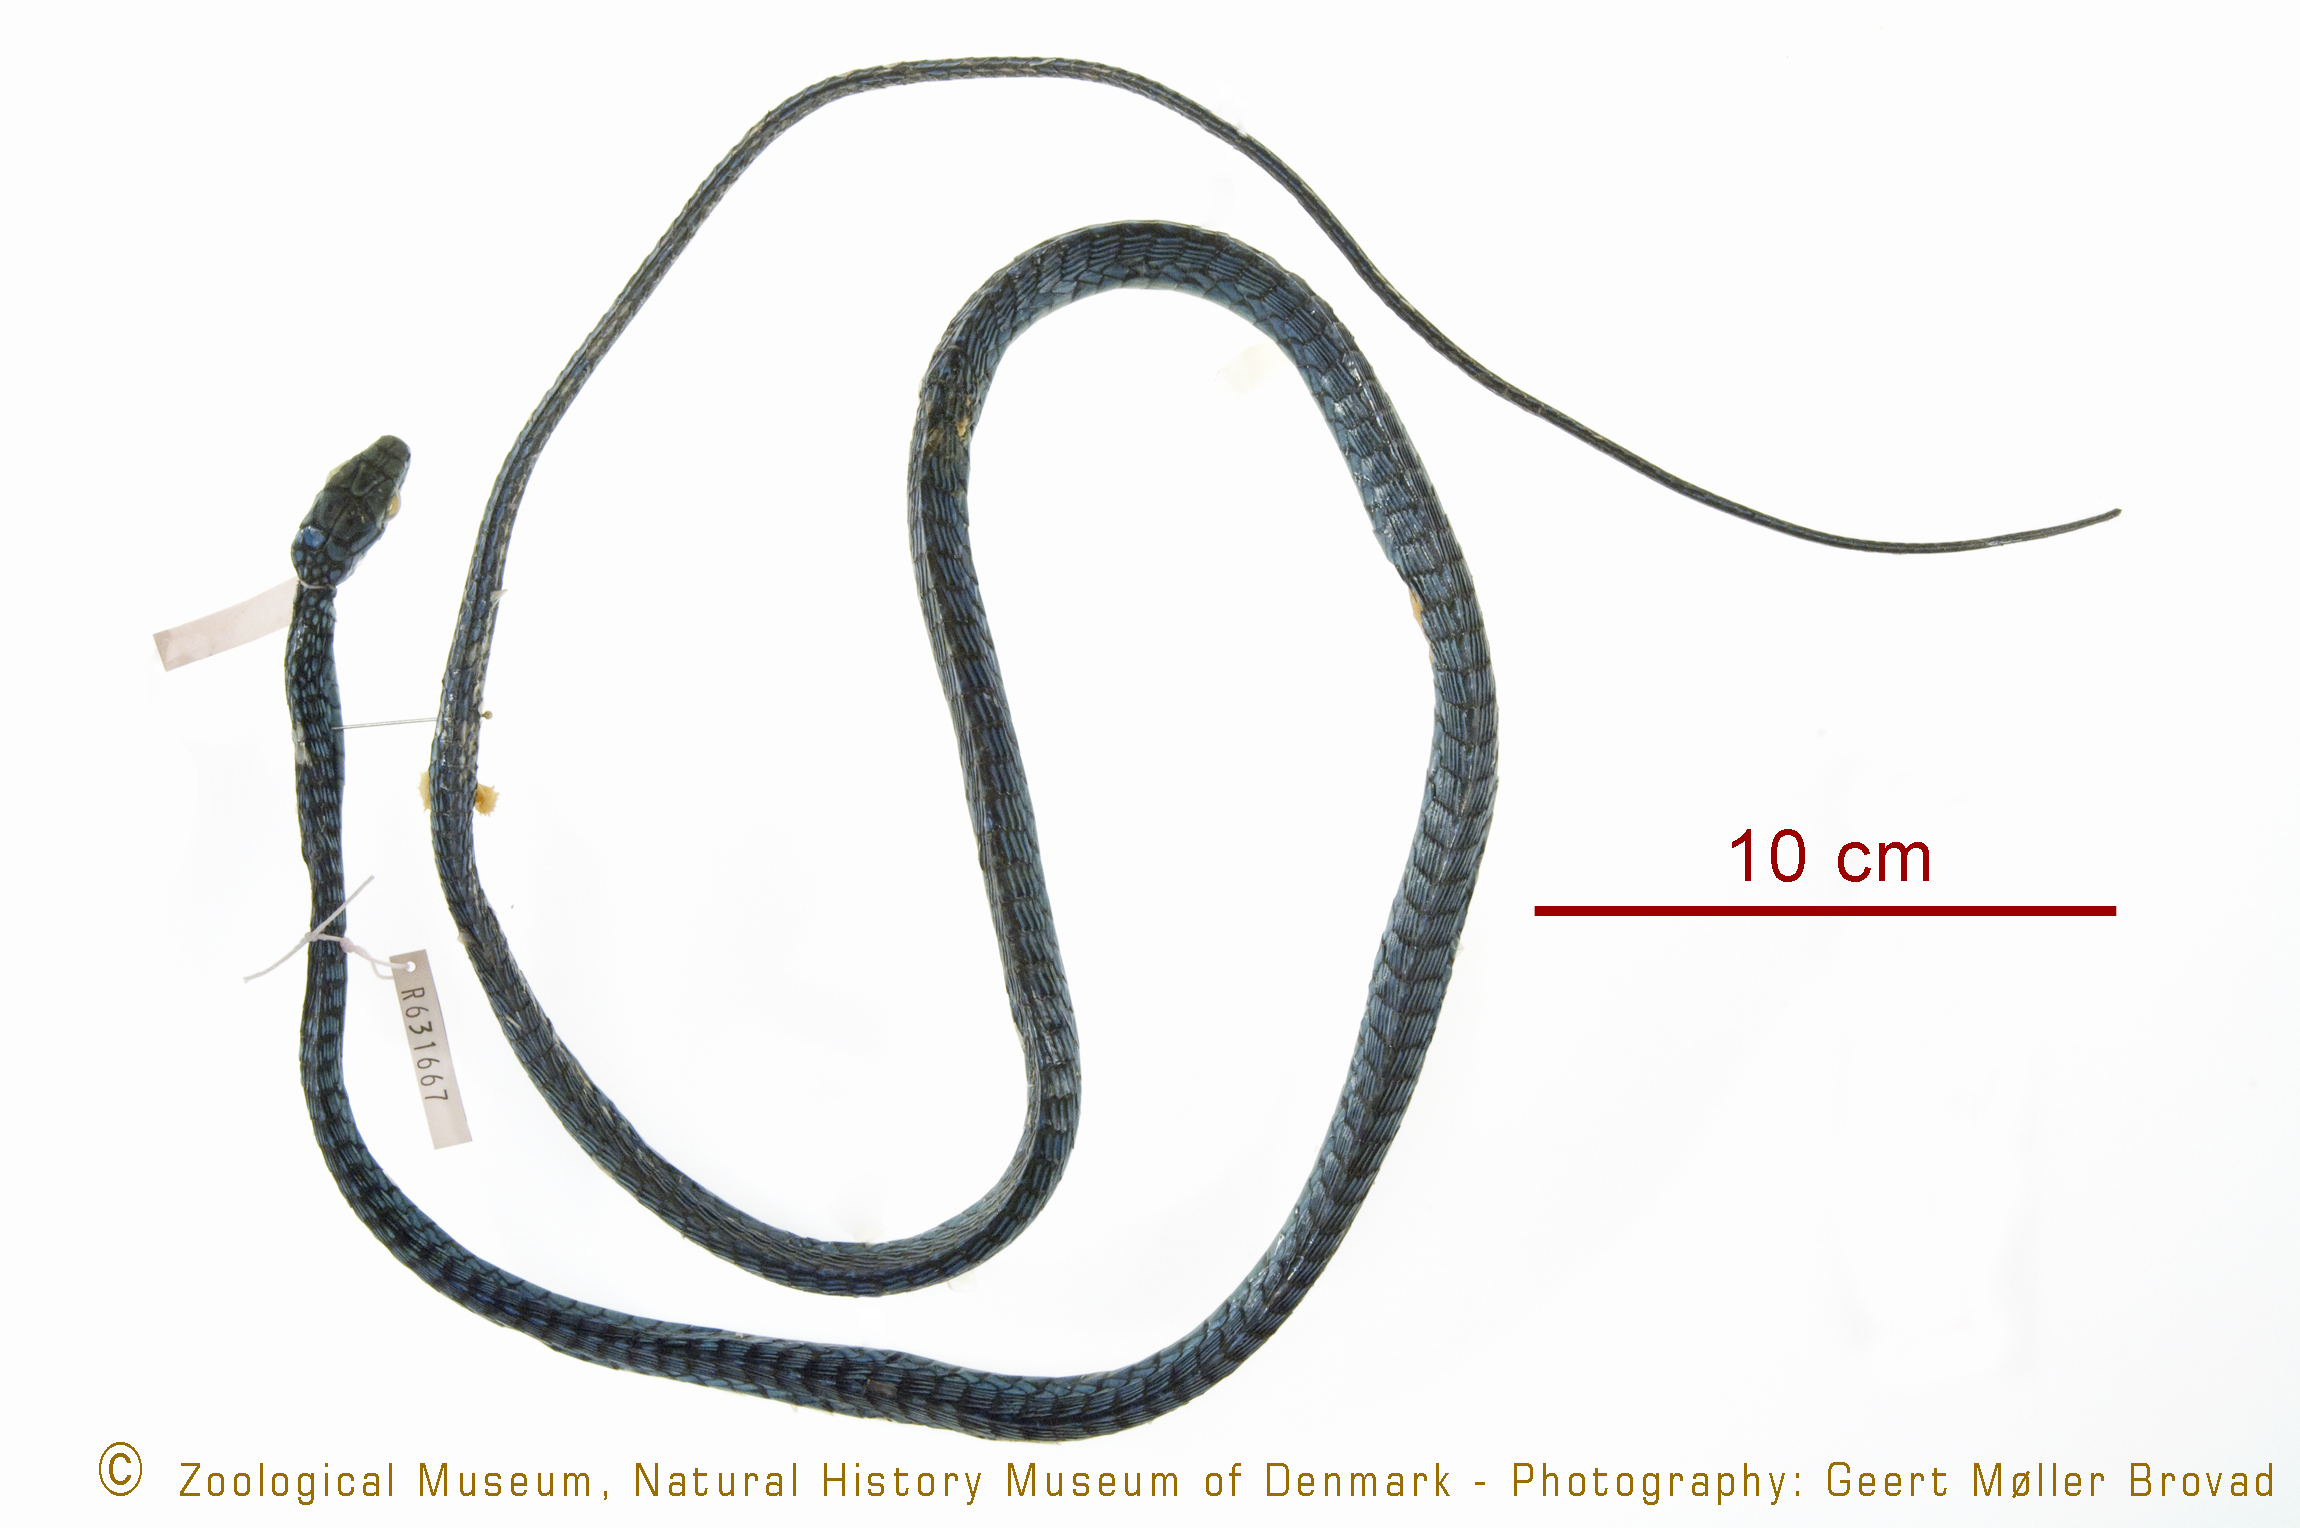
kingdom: Animalia
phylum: Chordata
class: Squamata
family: Colubridae
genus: Dispholidus
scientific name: Dispholidus typus
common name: Boomslang
